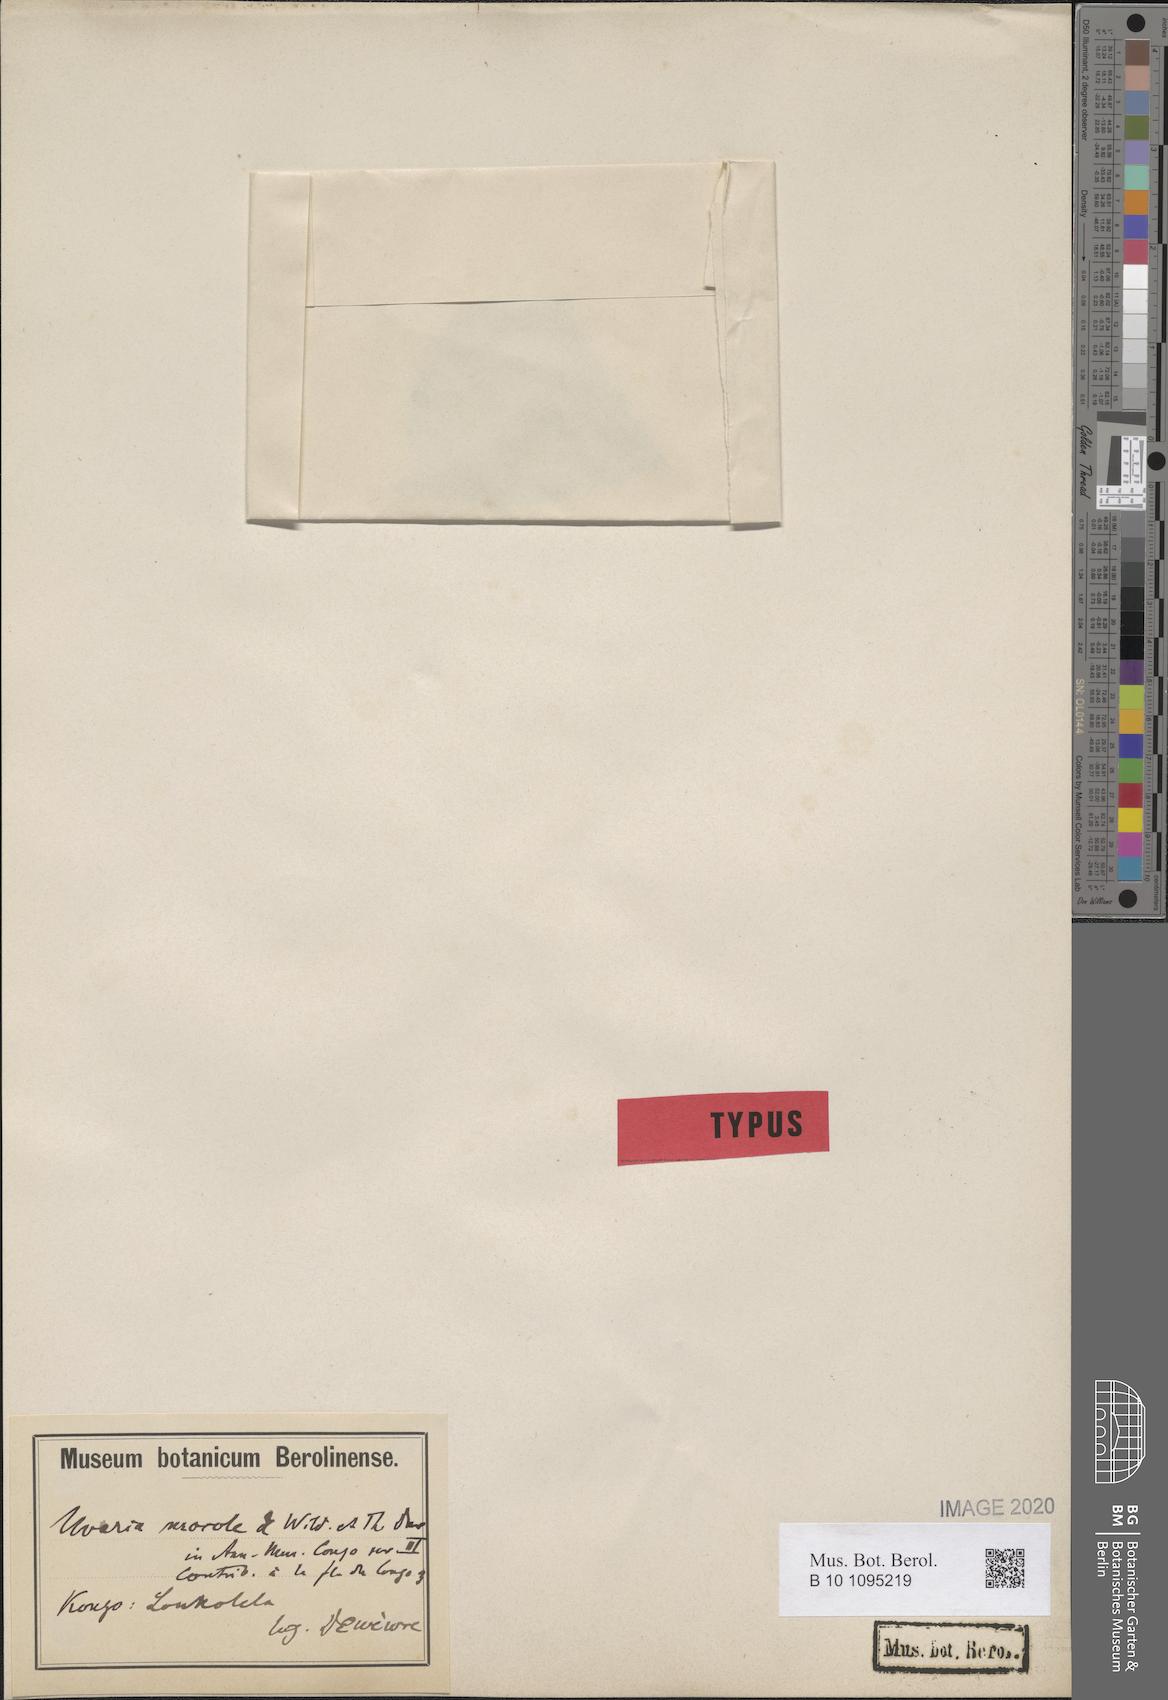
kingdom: Plantae
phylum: Tracheophyta
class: Magnoliopsida
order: Magnoliales
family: Annonaceae
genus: Uvaria
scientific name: Uvaria mocoli
